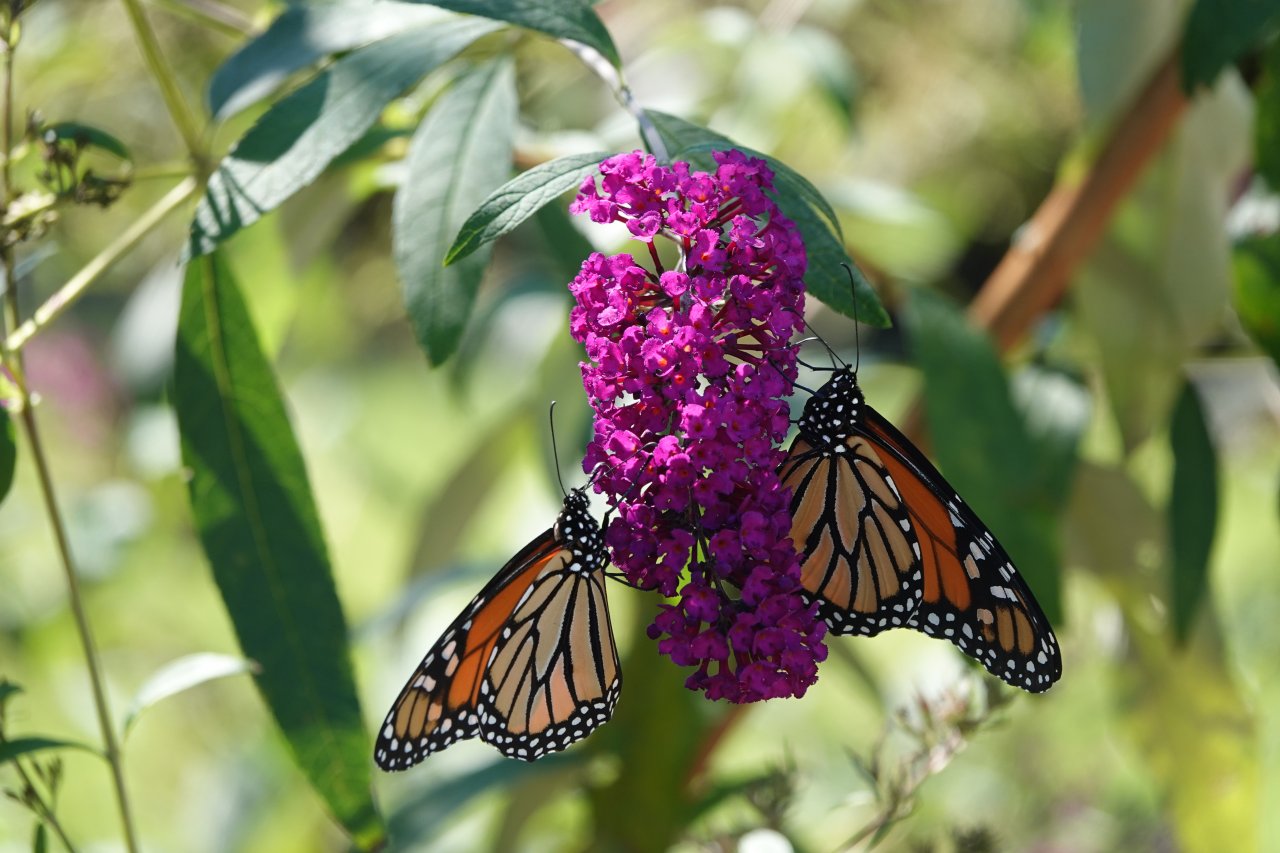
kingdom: Animalia
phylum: Arthropoda
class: Insecta
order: Lepidoptera
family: Nymphalidae
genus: Danaus
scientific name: Danaus plexippus
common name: Monarch
